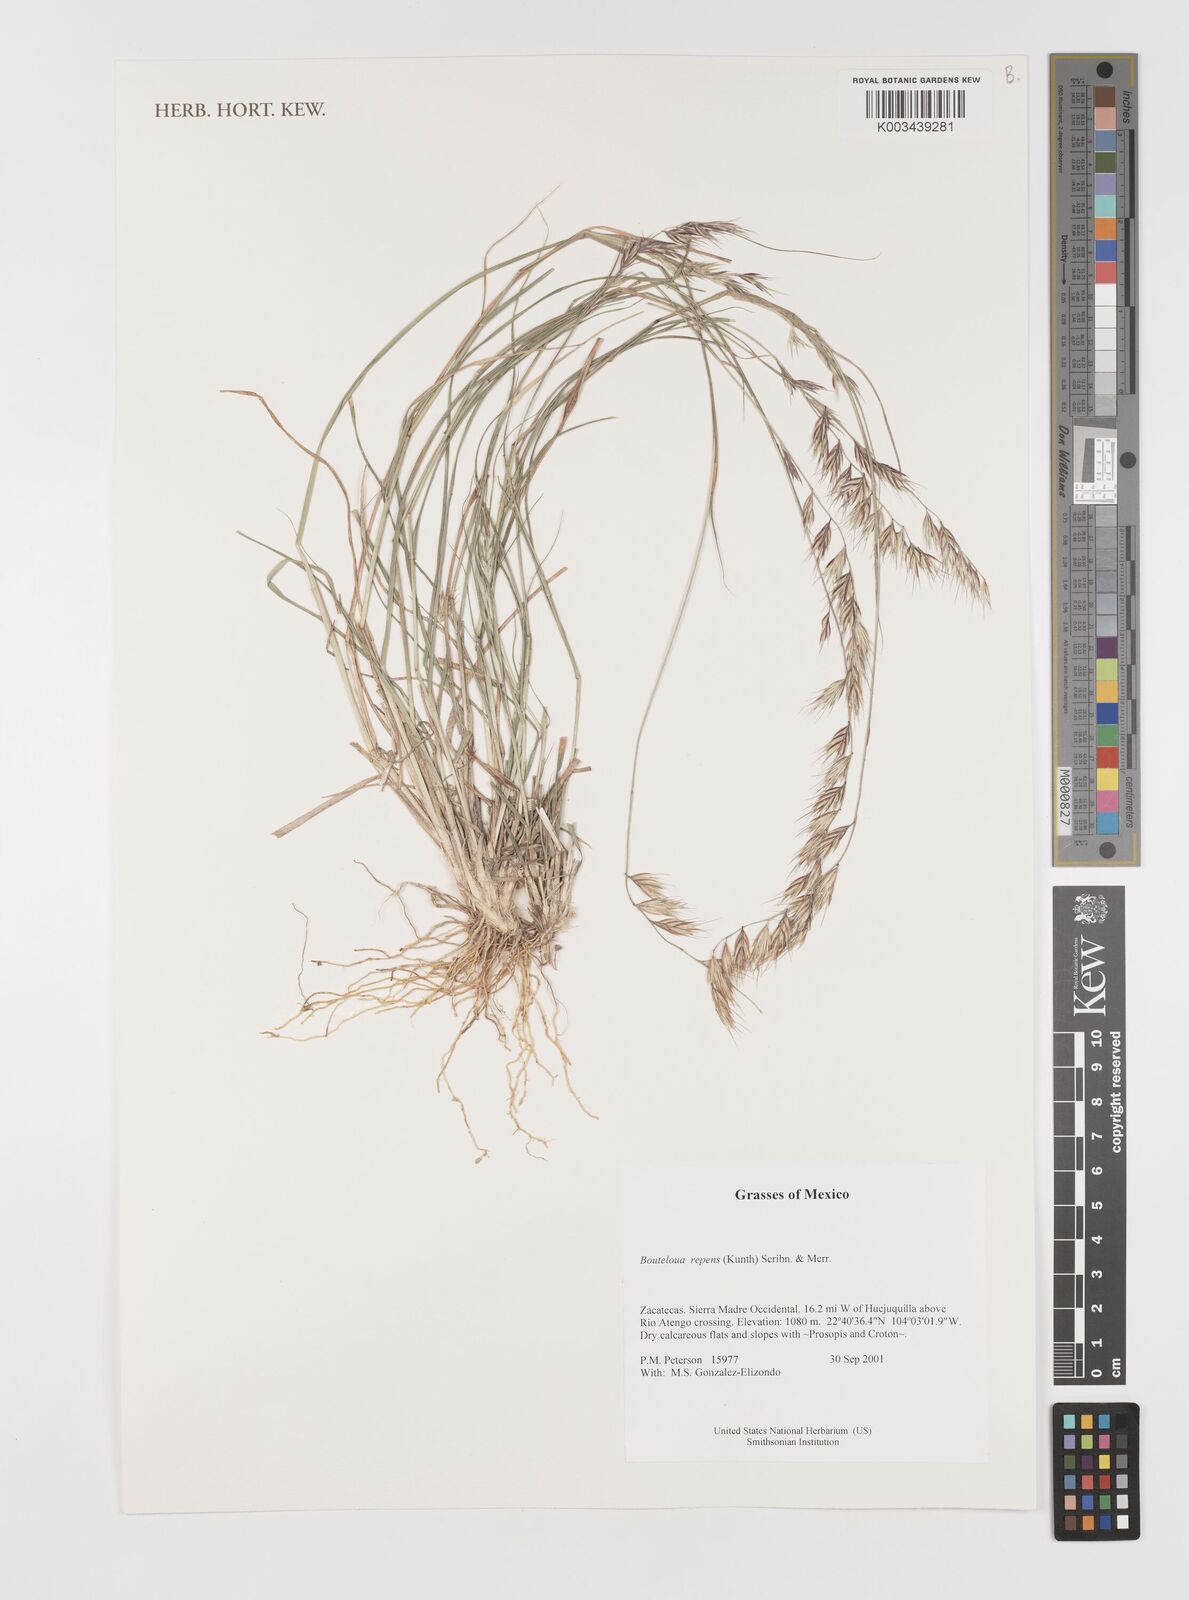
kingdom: Plantae
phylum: Tracheophyta
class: Liliopsida
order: Poales
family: Poaceae
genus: Bouteloua
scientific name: Bouteloua repens
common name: Slender grama
